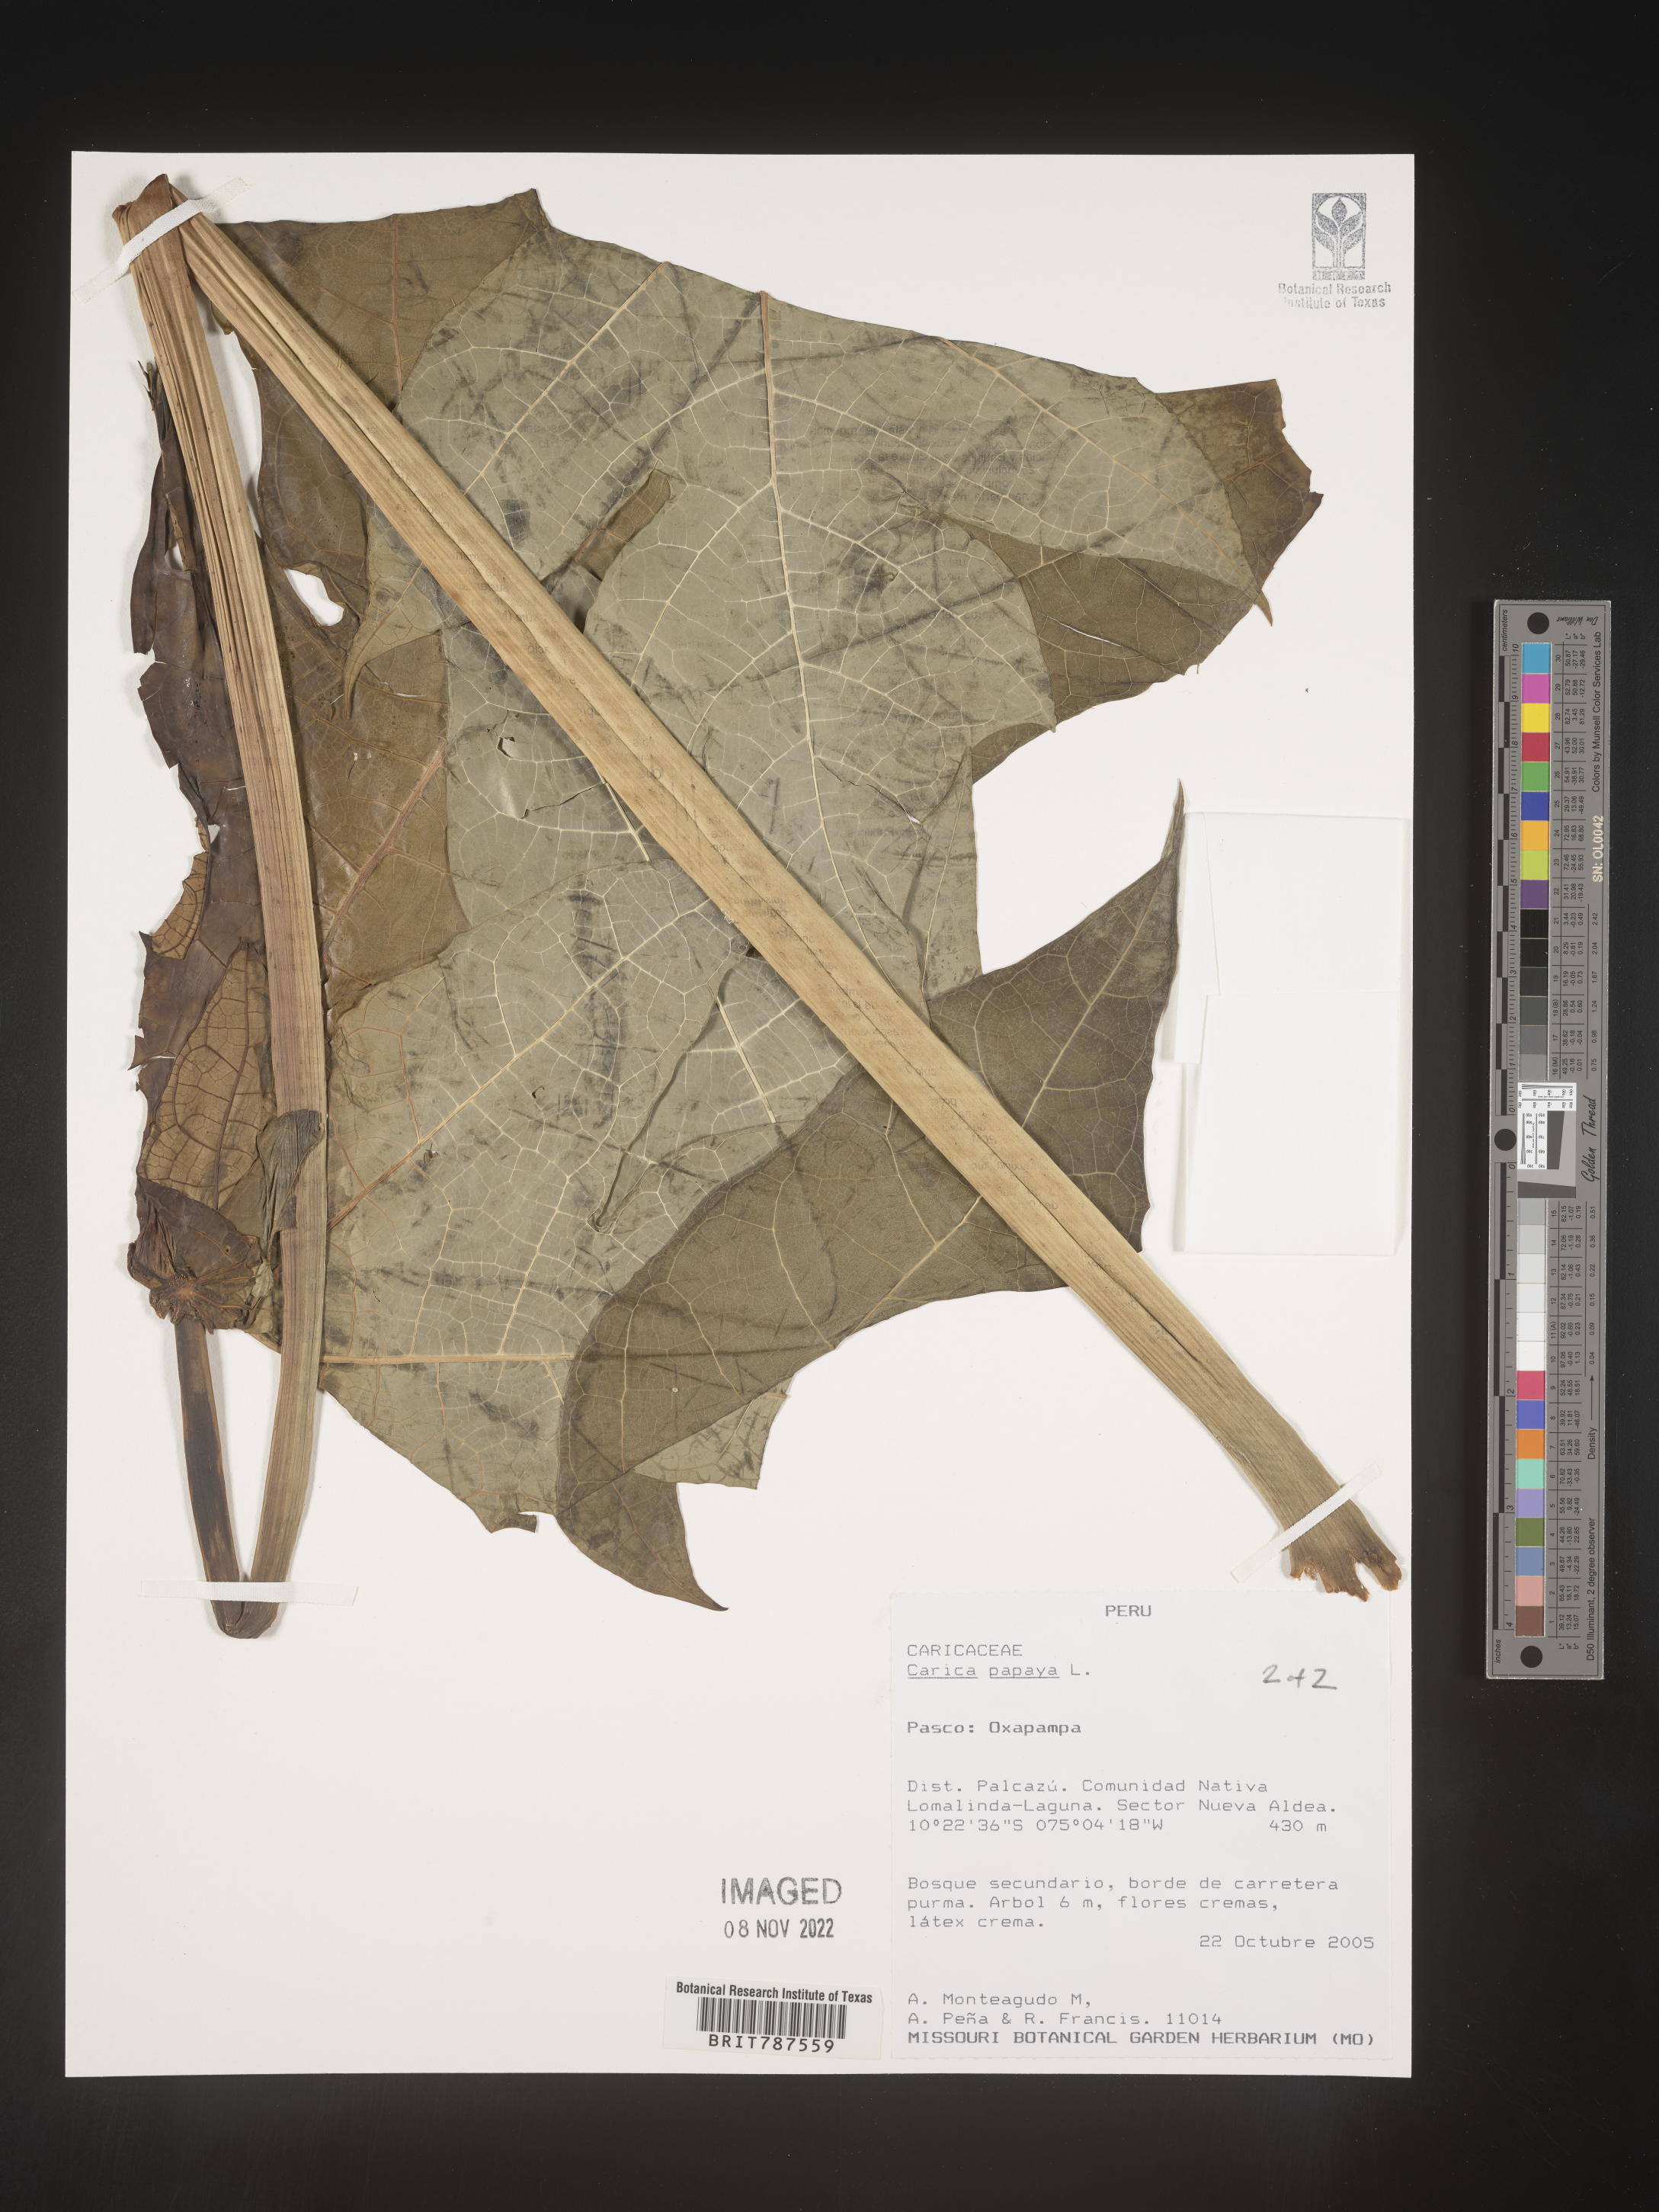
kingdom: Plantae
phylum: Tracheophyta
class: Magnoliopsida
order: Brassicales
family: Caricaceae
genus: Carica
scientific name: Carica
